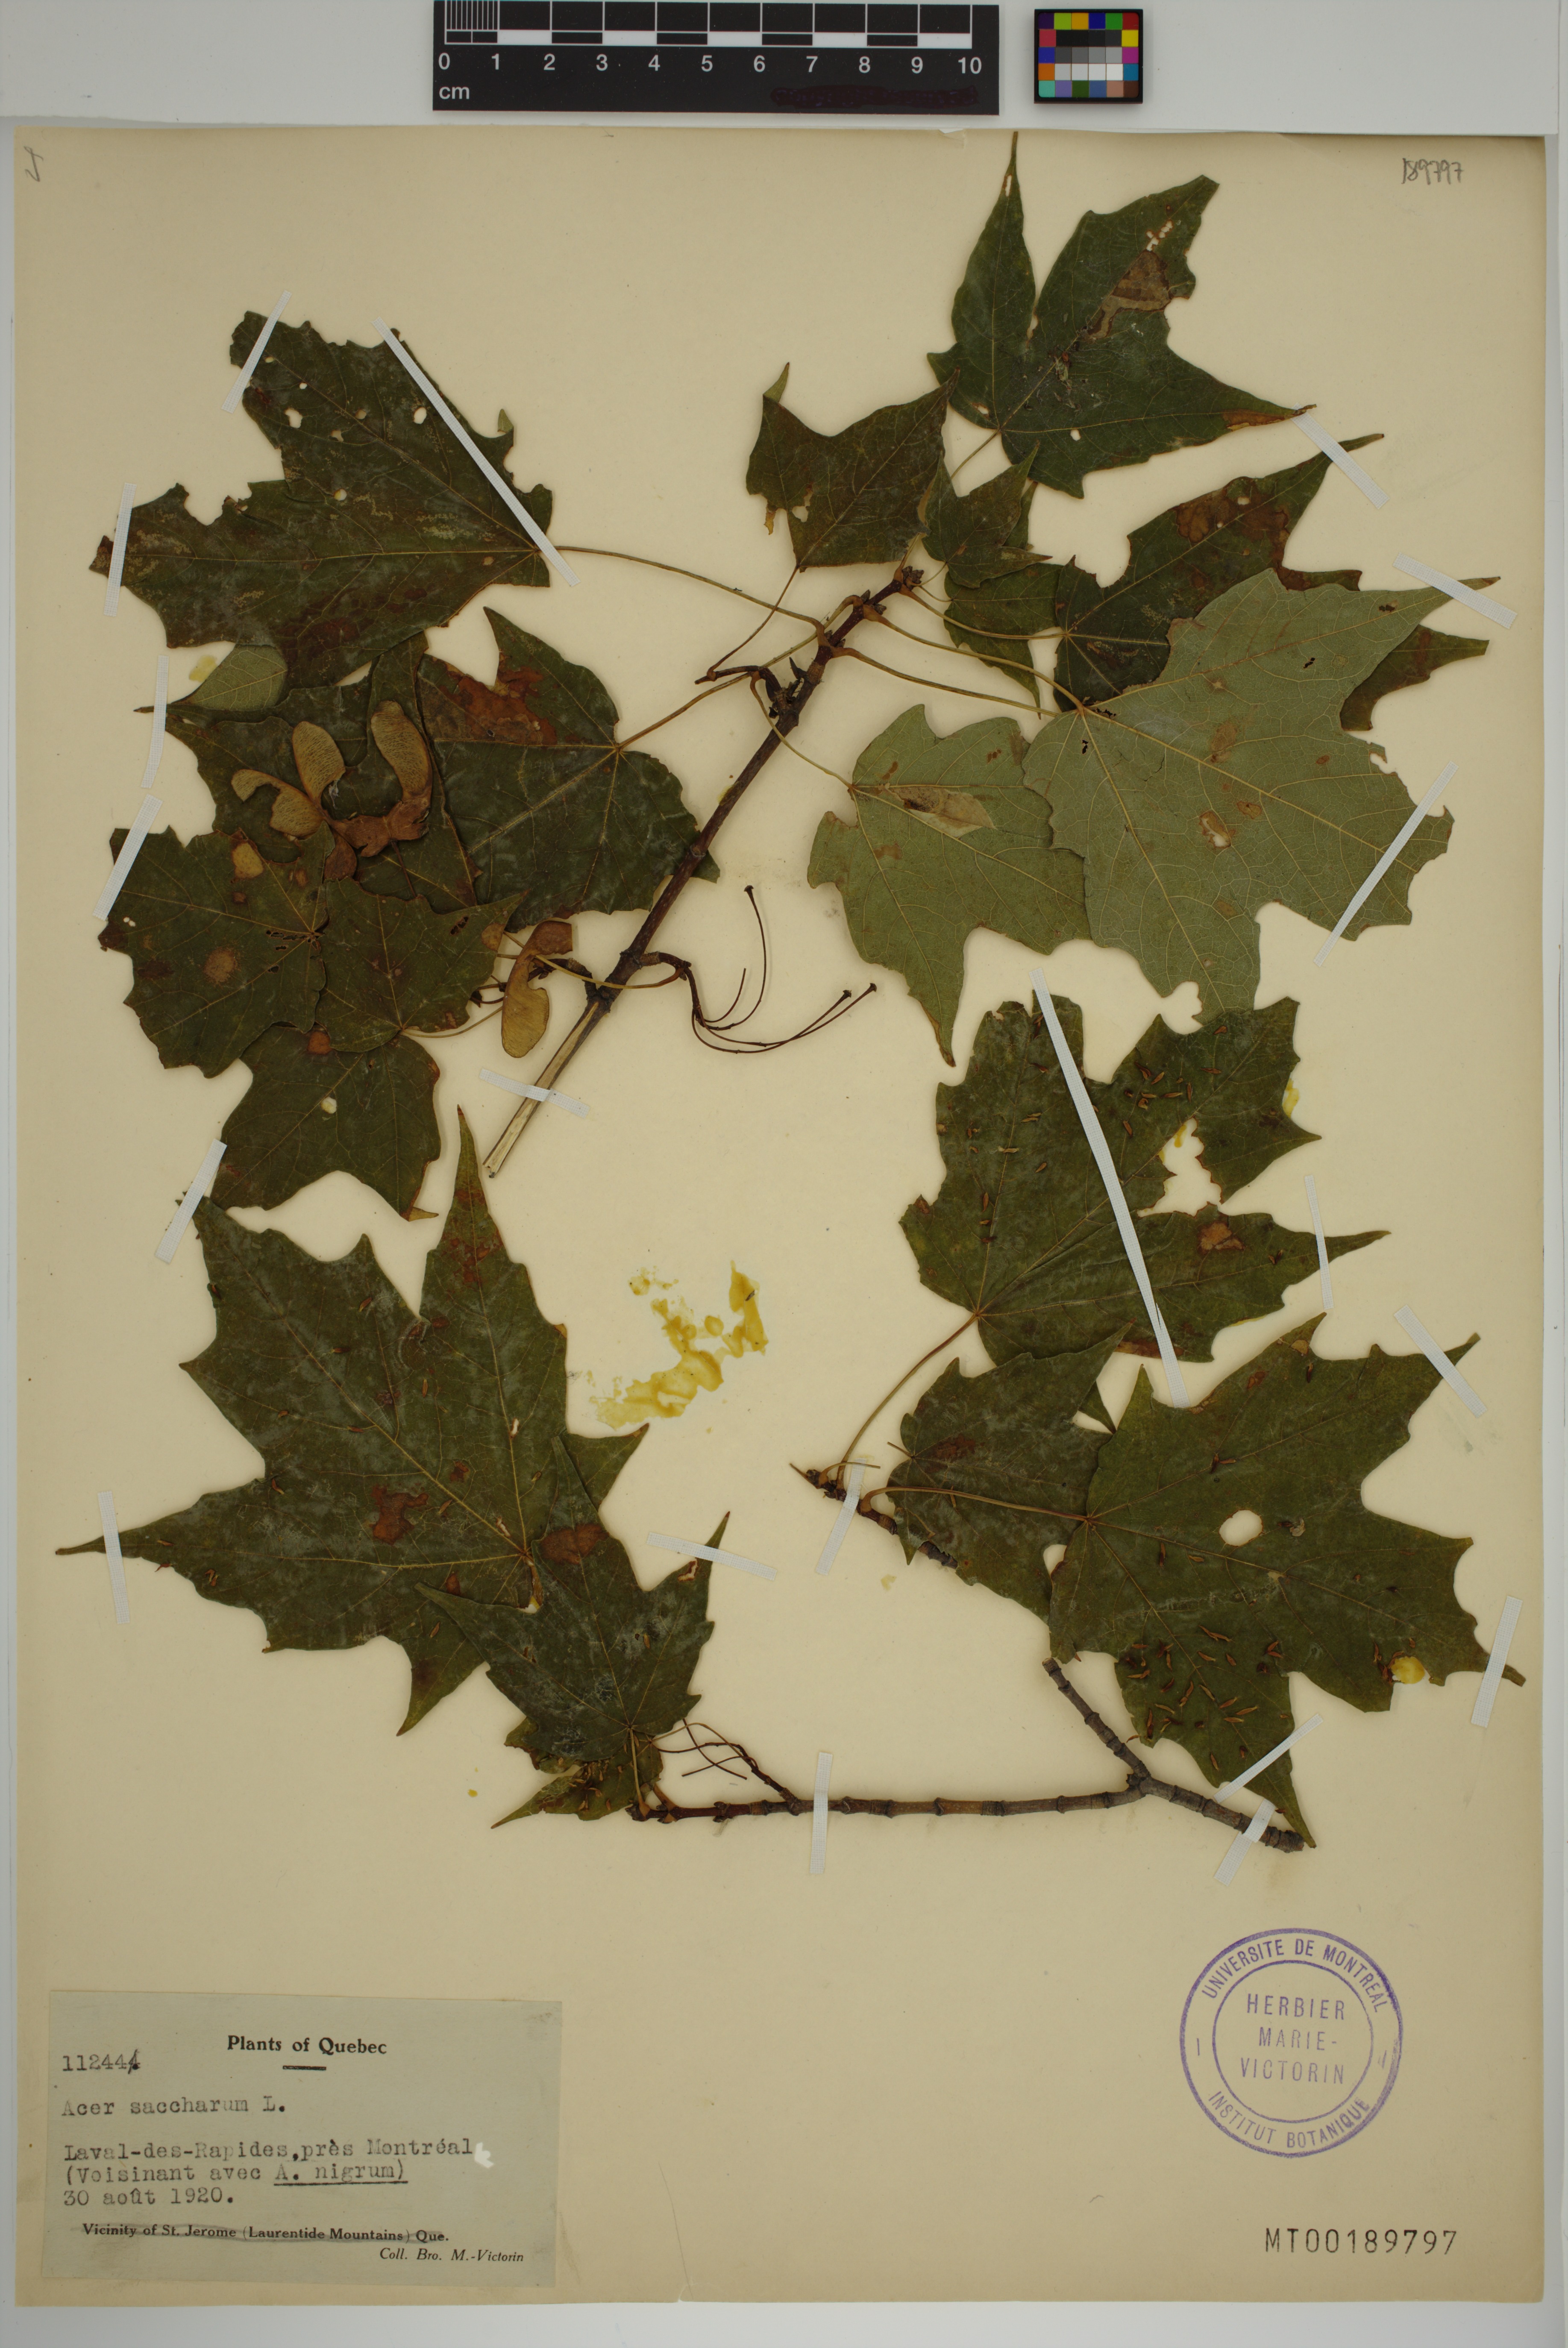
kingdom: Plantae
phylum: Tracheophyta
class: Magnoliopsida
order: Sapindales
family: Sapindaceae
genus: Acer
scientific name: Acer saccharum
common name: Sugar maple
